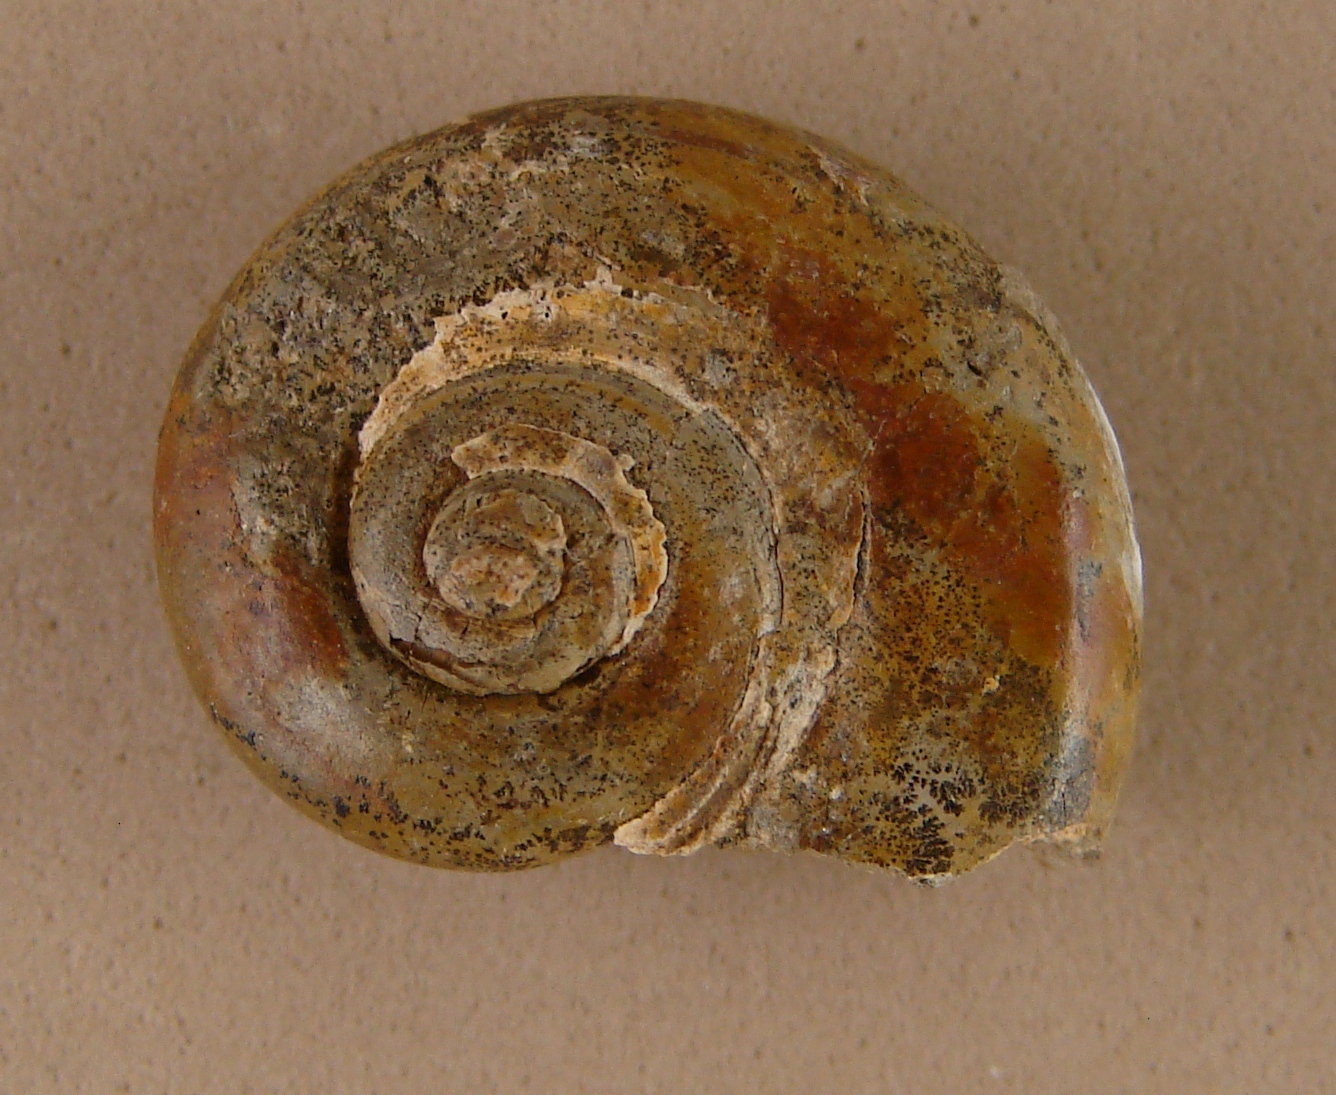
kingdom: Animalia
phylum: Mollusca
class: Gastropoda
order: Pleurotomariida
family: Ptychomphalidae
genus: Angulomphalus
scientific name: Angulomphalus expansus
